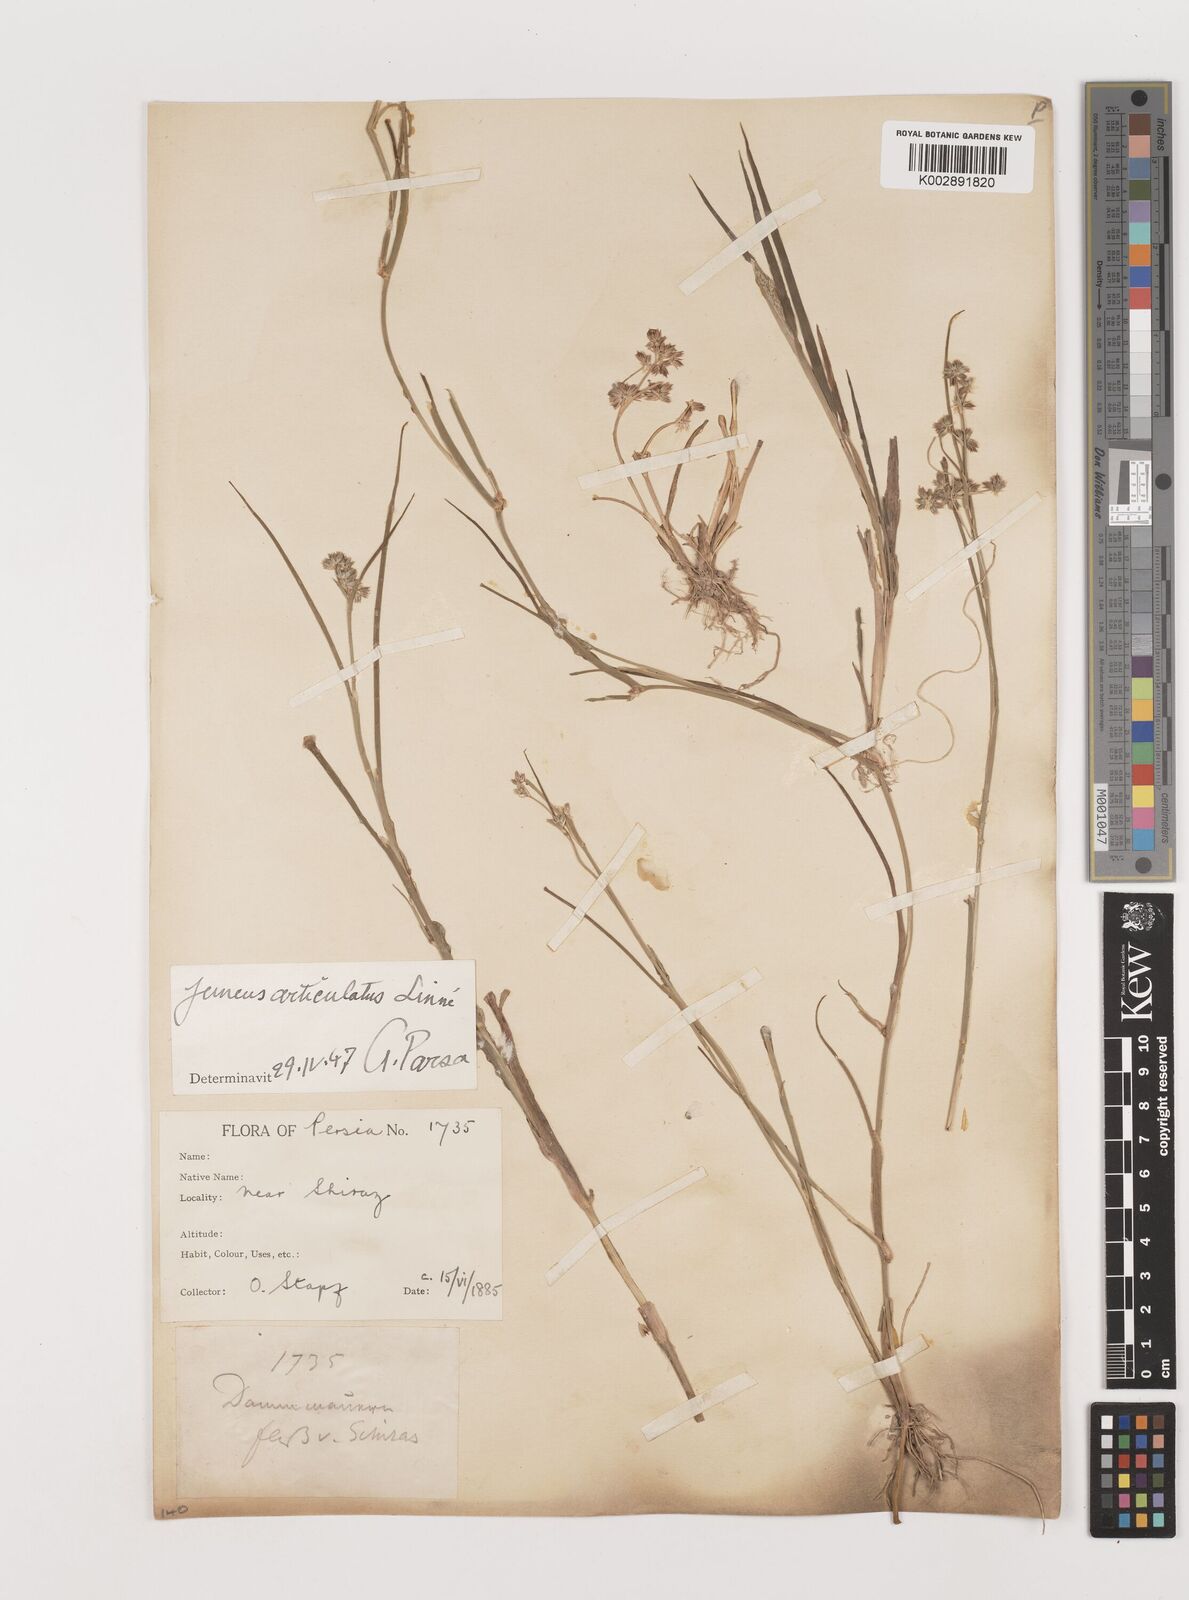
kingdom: Plantae
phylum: Tracheophyta
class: Liliopsida
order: Poales
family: Juncaceae
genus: Juncus
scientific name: Juncus articulatus
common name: Jointed rush
